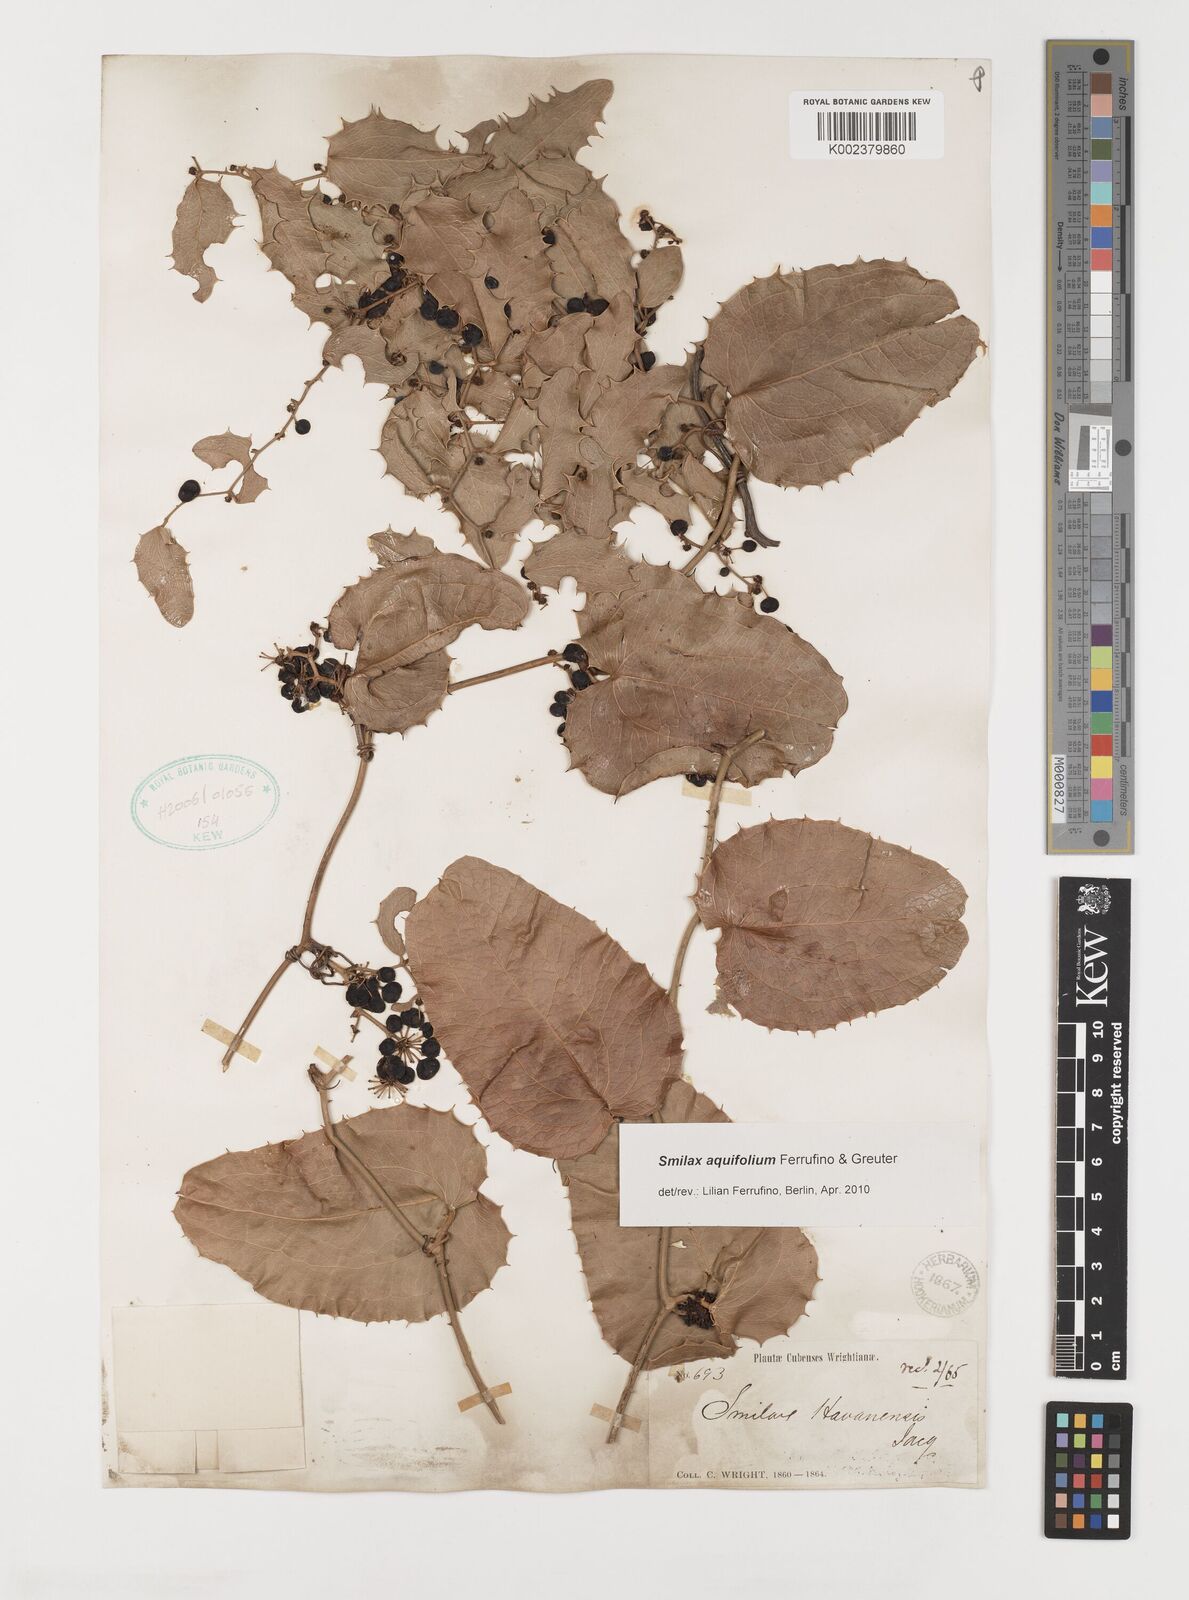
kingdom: Plantae
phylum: Tracheophyta
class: Liliopsida
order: Liliales
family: Smilacaceae
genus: Smilax
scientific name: Smilax aquifolium
